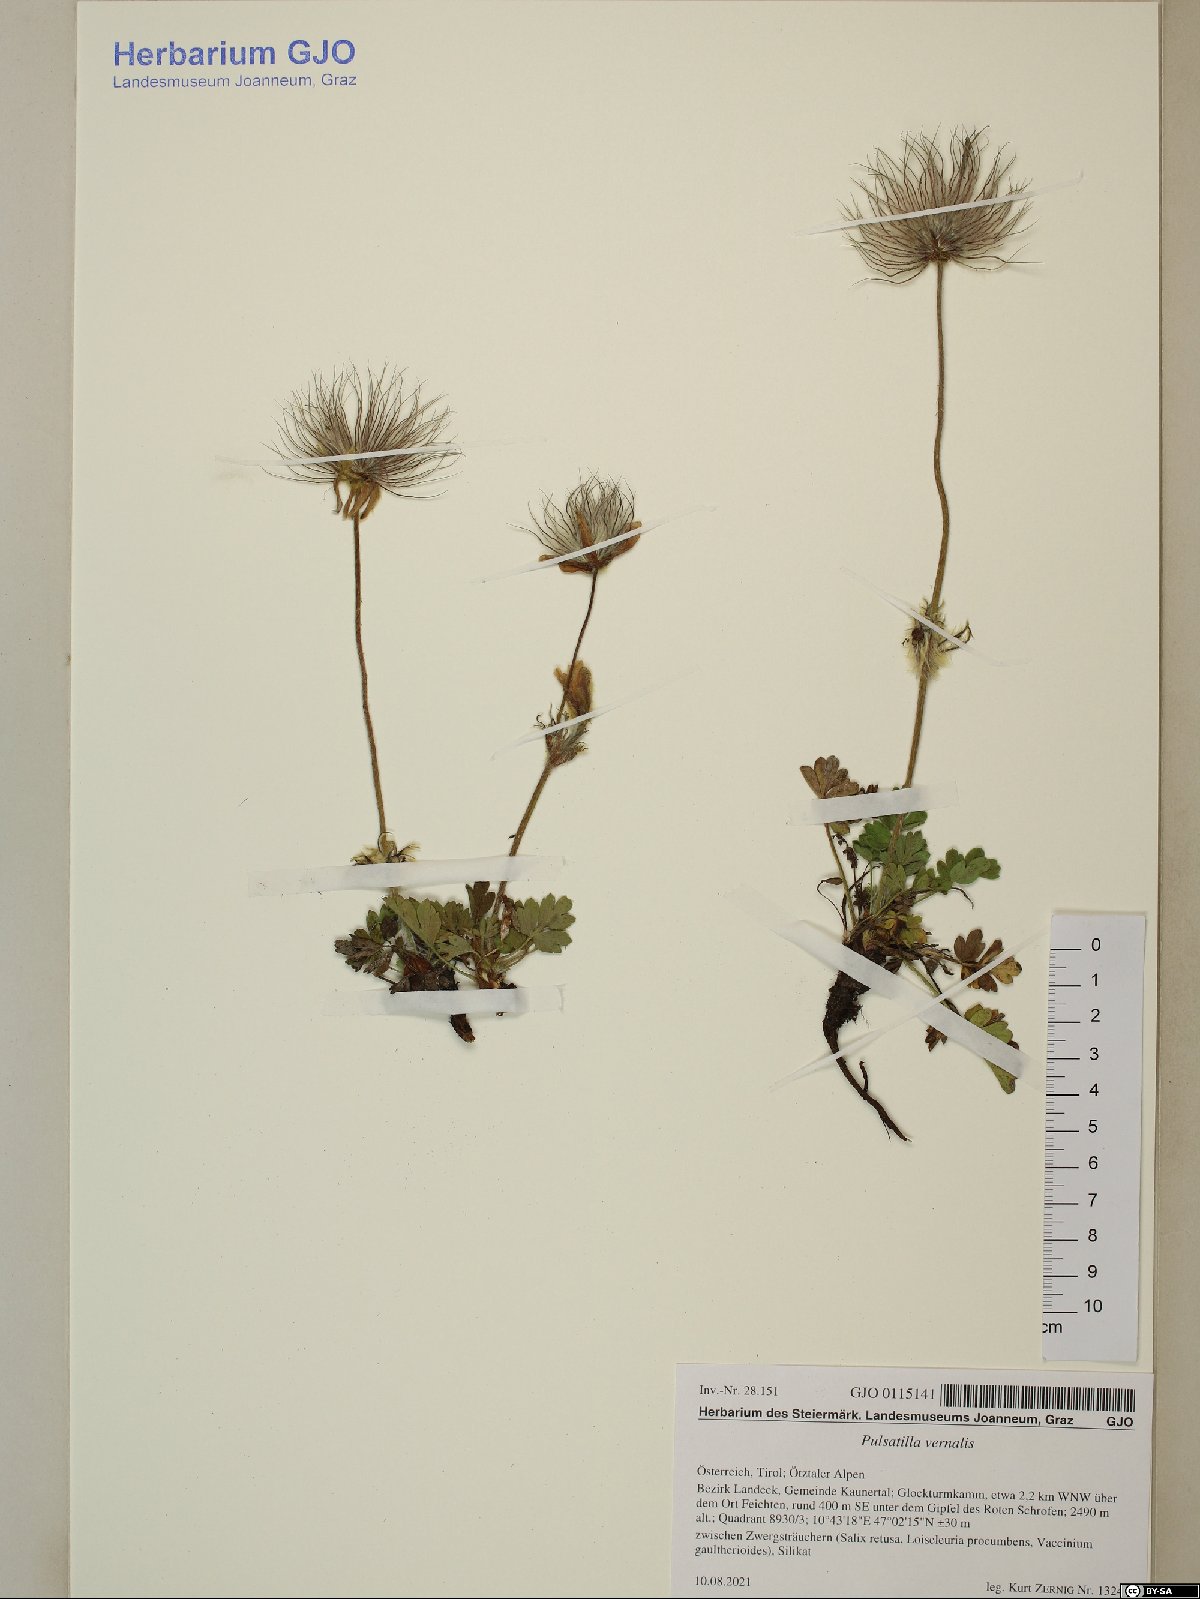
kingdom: Plantae
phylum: Tracheophyta
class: Magnoliopsida
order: Ranunculales
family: Ranunculaceae
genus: Pulsatilla
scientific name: Pulsatilla vernalis
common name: Spring pasque flower
